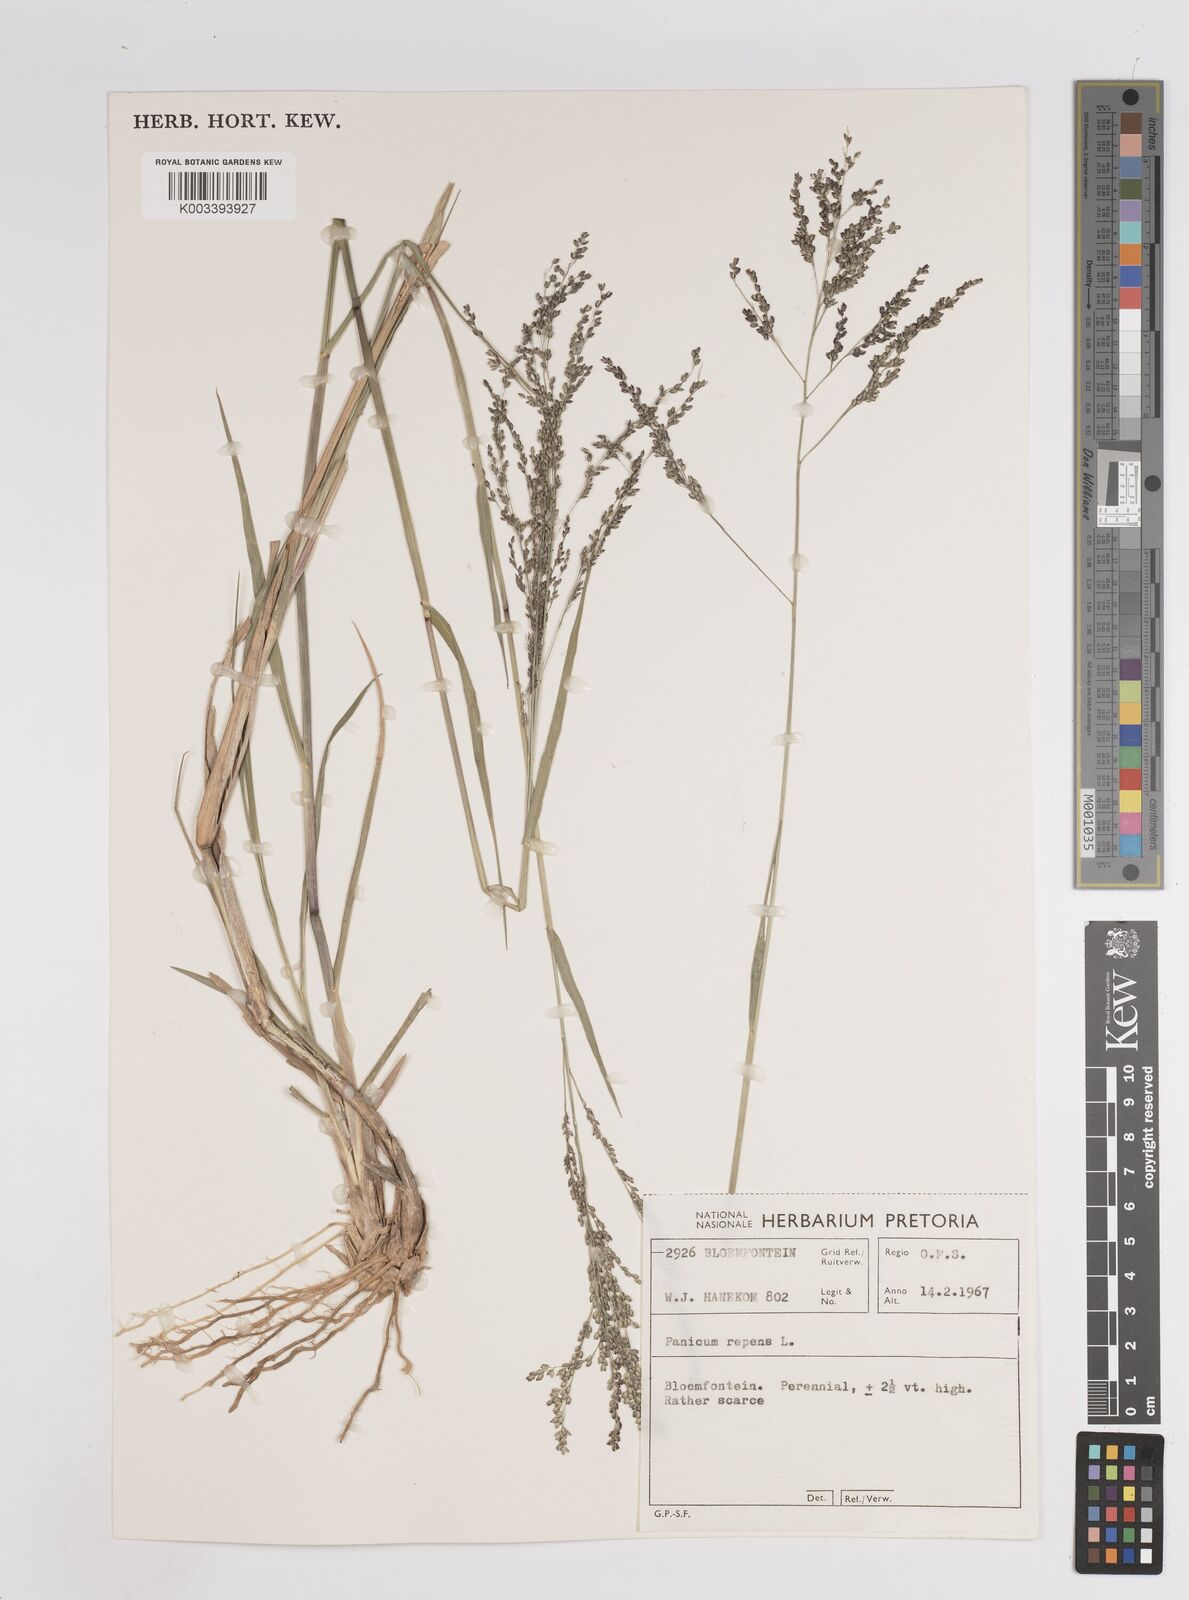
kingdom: Plantae
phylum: Tracheophyta
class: Liliopsida
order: Poales
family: Poaceae
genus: Panicum
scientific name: Panicum coloratum
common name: Kleingrass
